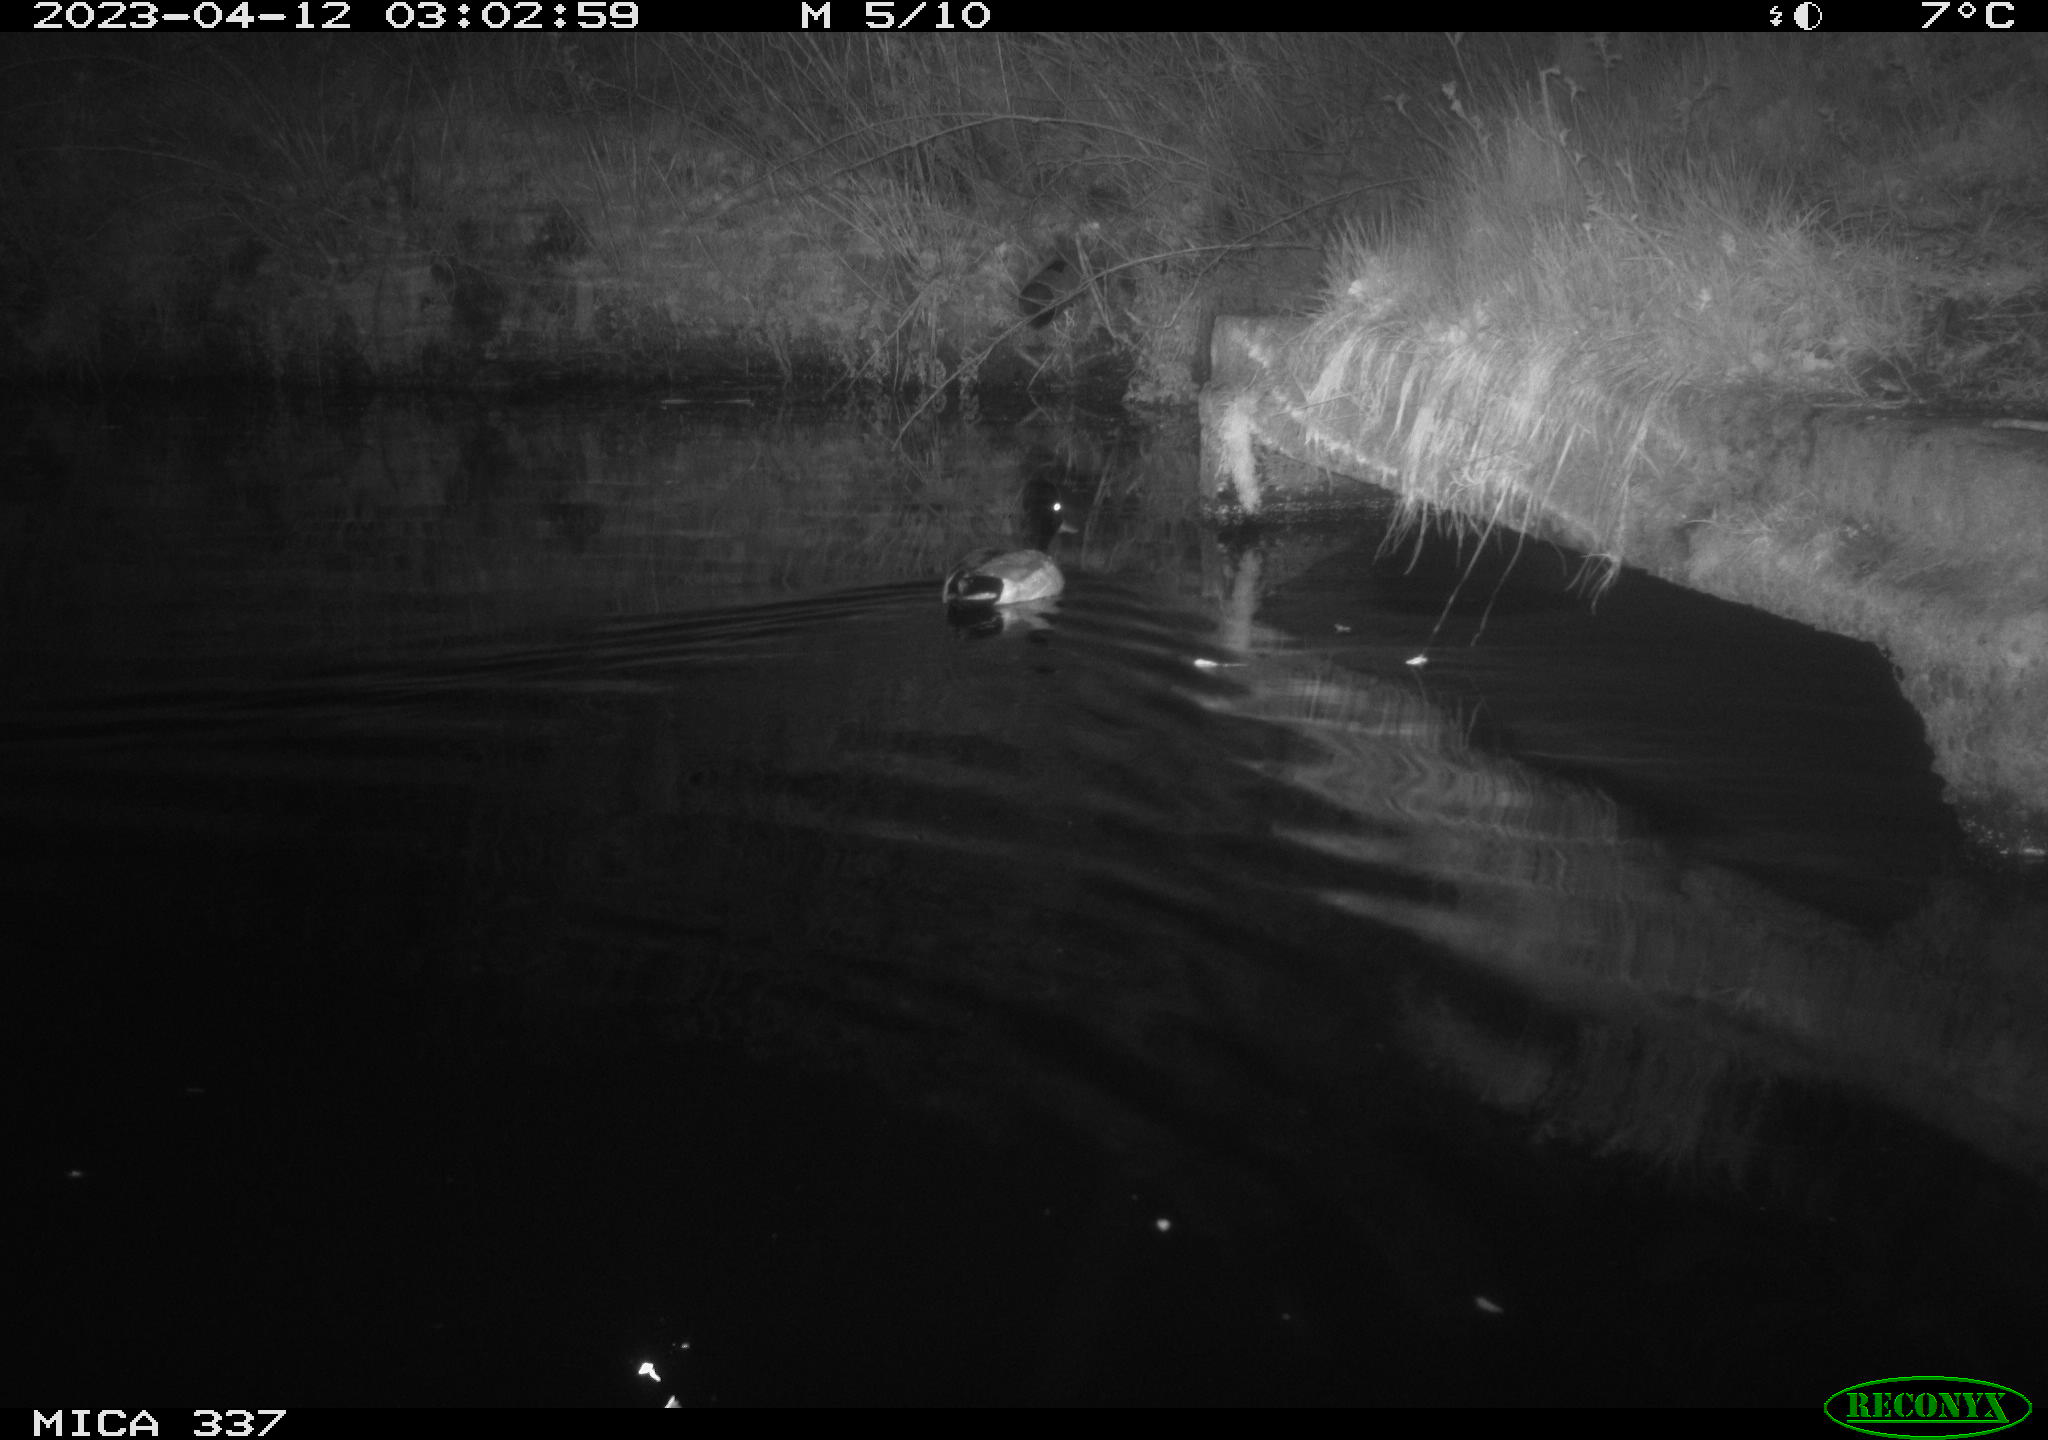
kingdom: Animalia
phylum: Chordata
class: Aves
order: Anseriformes
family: Anatidae
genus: Anas
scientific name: Anas
